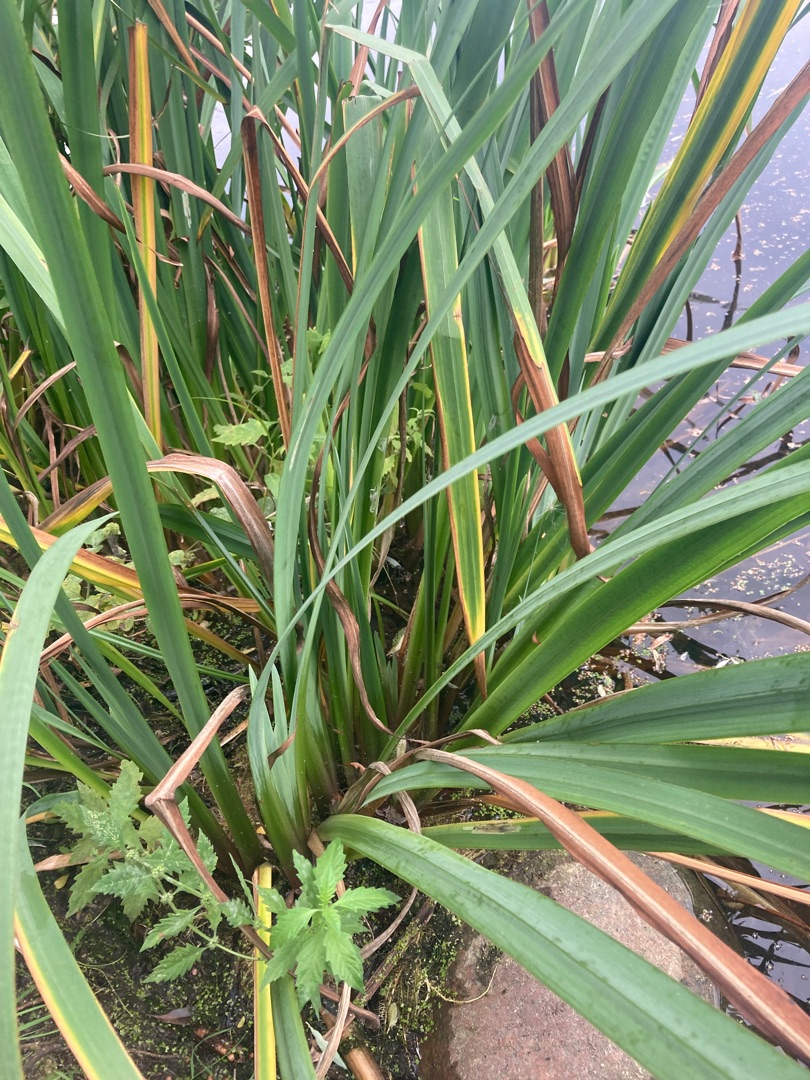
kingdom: Plantae
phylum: Tracheophyta
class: Liliopsida
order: Asparagales
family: Iridaceae
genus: Iris
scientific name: Iris pseudacorus
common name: Gul iris
